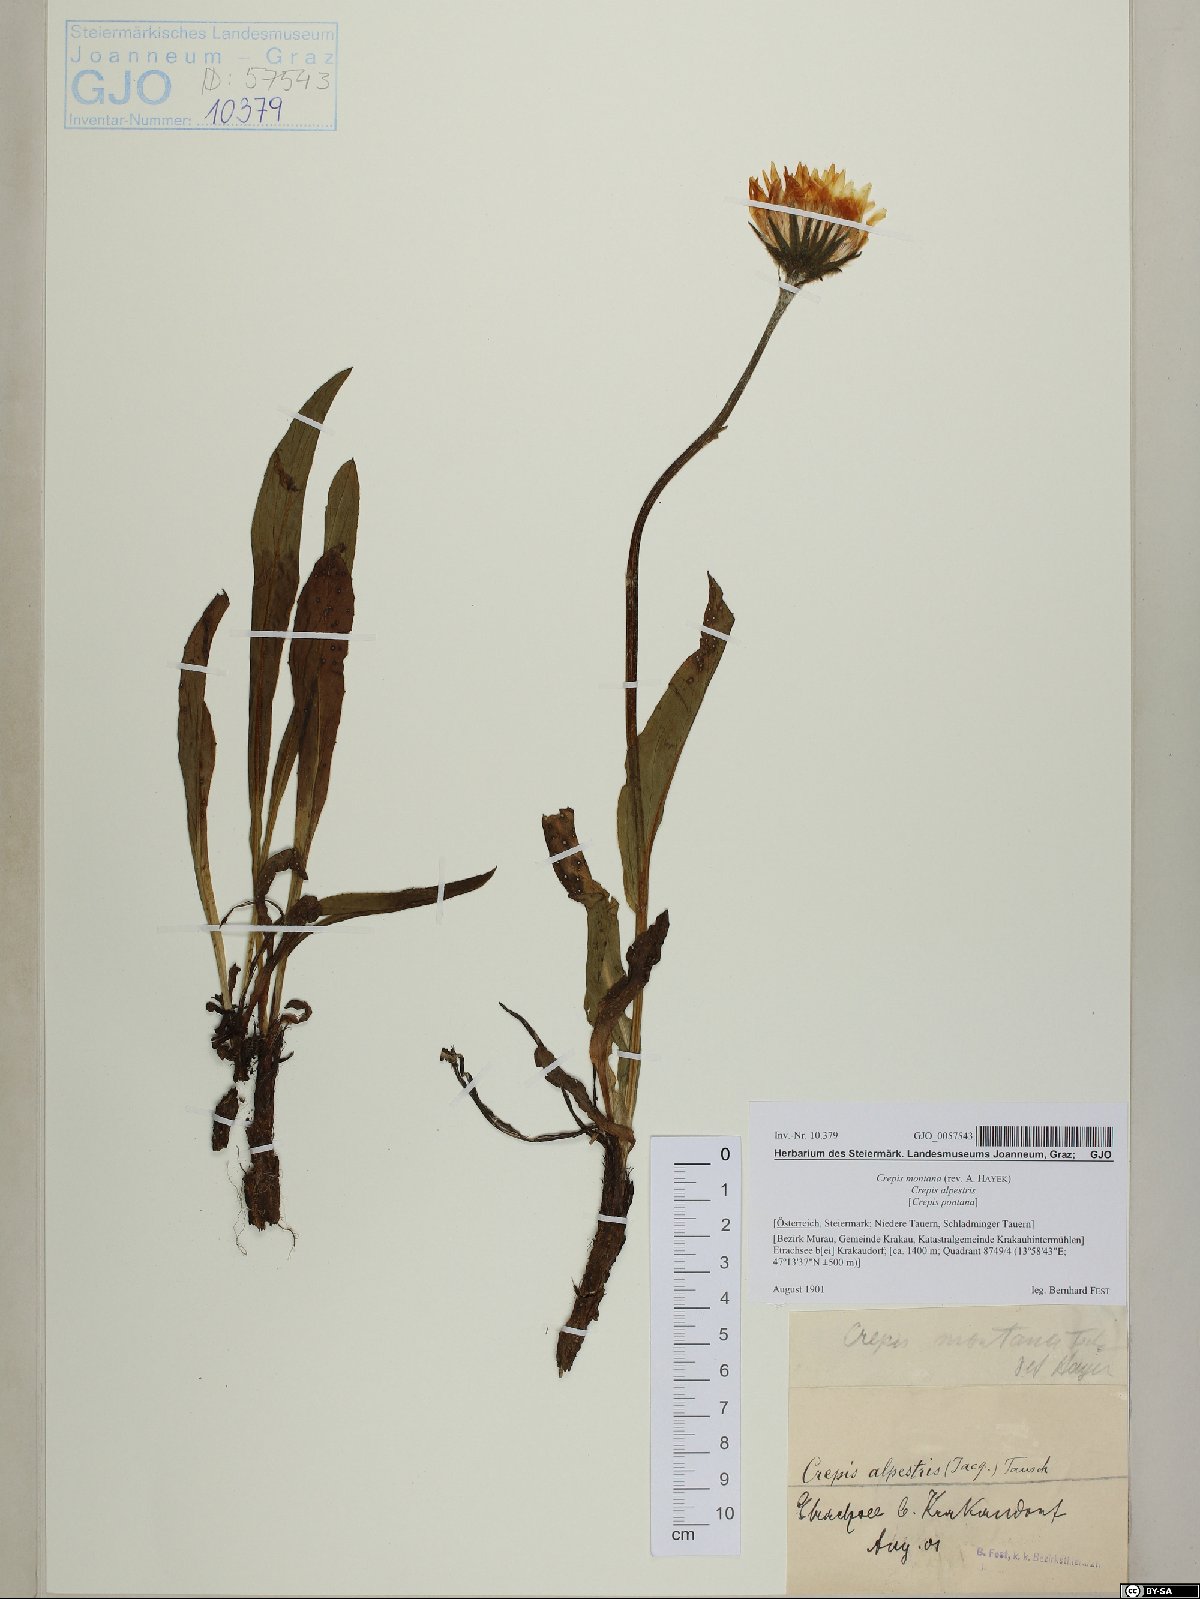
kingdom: Plantae
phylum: Tracheophyta
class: Magnoliopsida
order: Asterales
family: Asteraceae
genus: Crepis
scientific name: Crepis pontana
